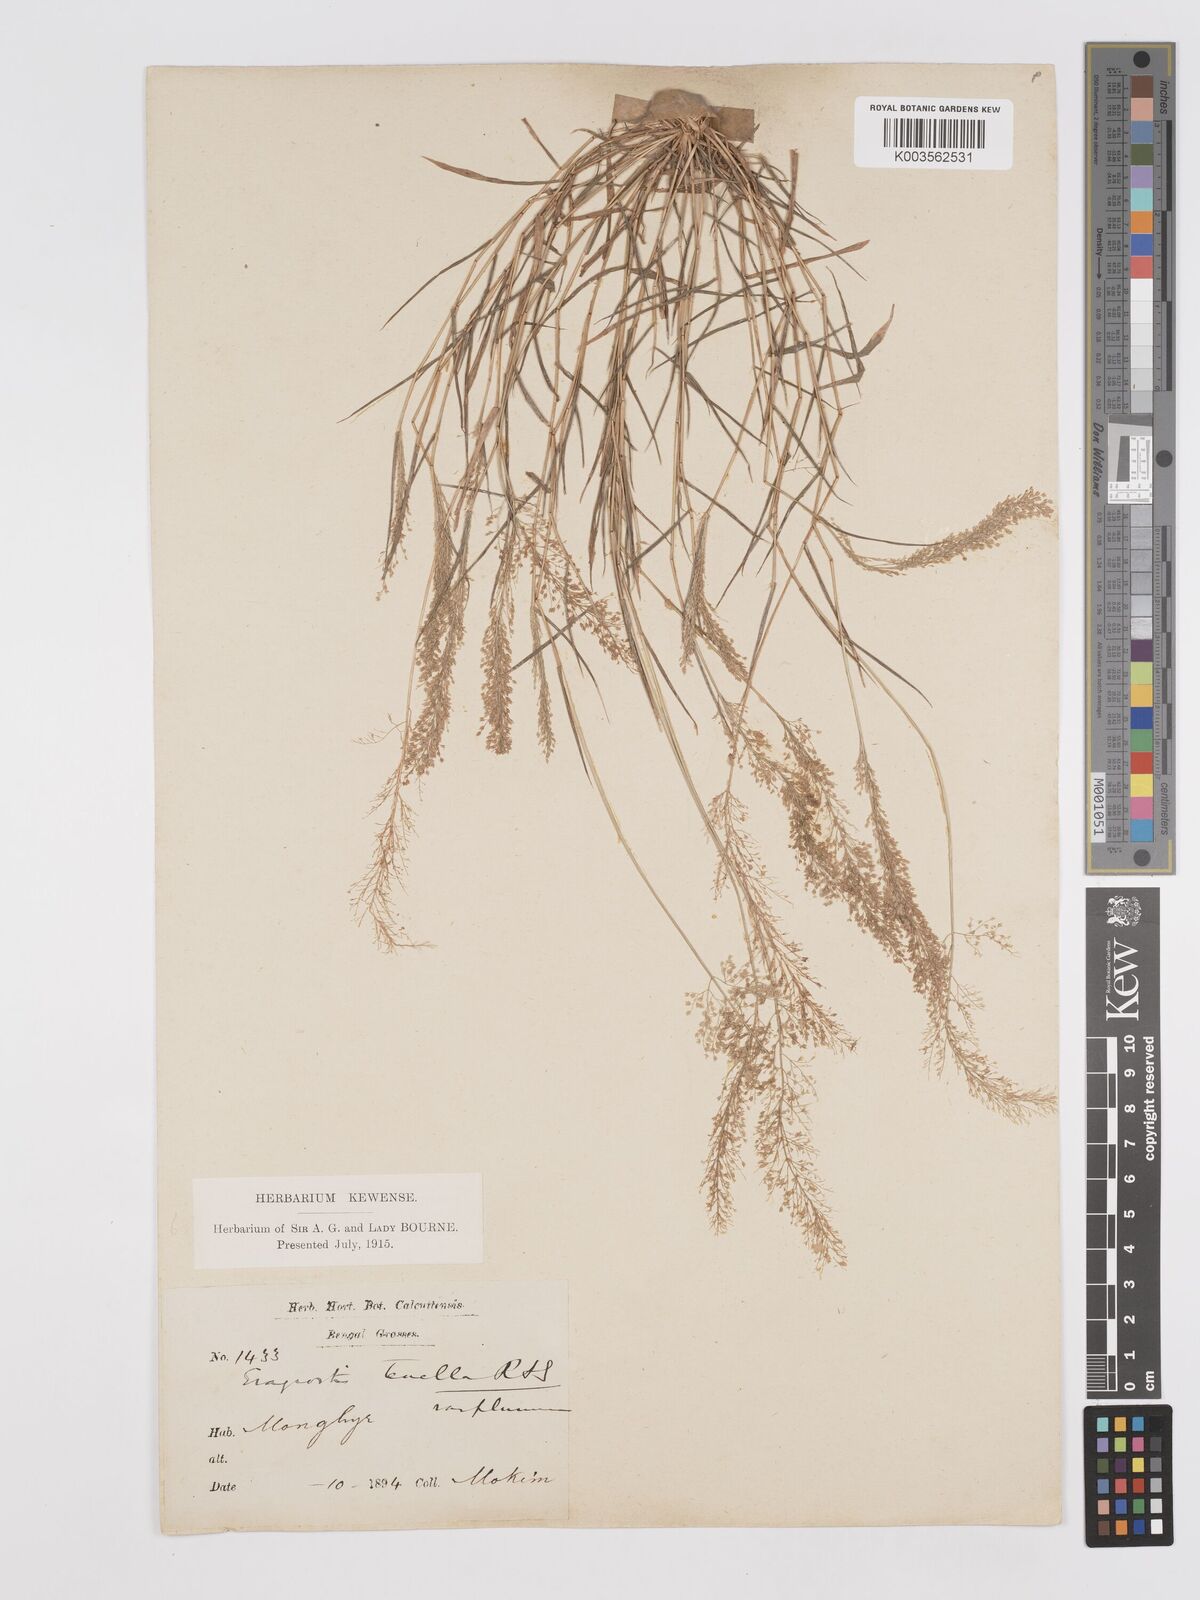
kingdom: Plantae
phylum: Tracheophyta
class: Liliopsida
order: Poales
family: Poaceae
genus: Eragrostis
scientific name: Eragrostis tenella
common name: Japanese lovegrass
